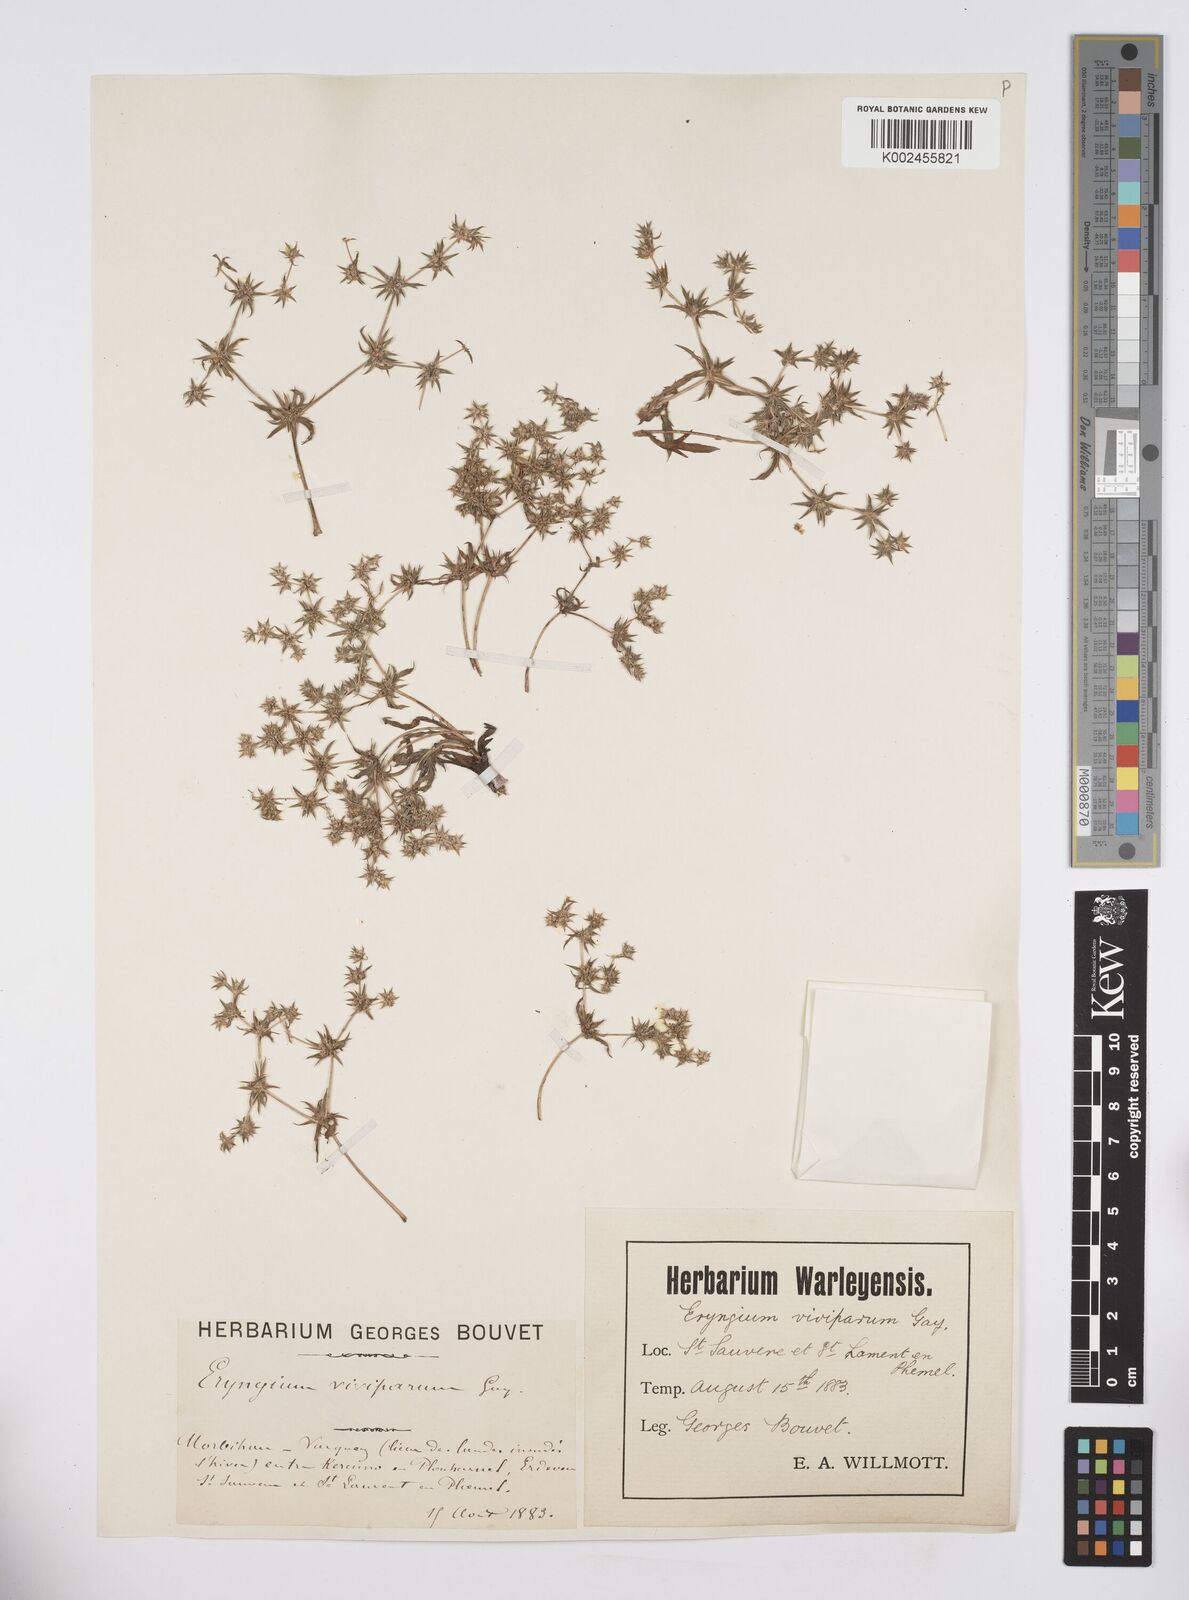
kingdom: Plantae
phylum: Tracheophyta
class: Magnoliopsida
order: Apiales
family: Apiaceae
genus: Eryngium
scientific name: Eryngium viviparum
